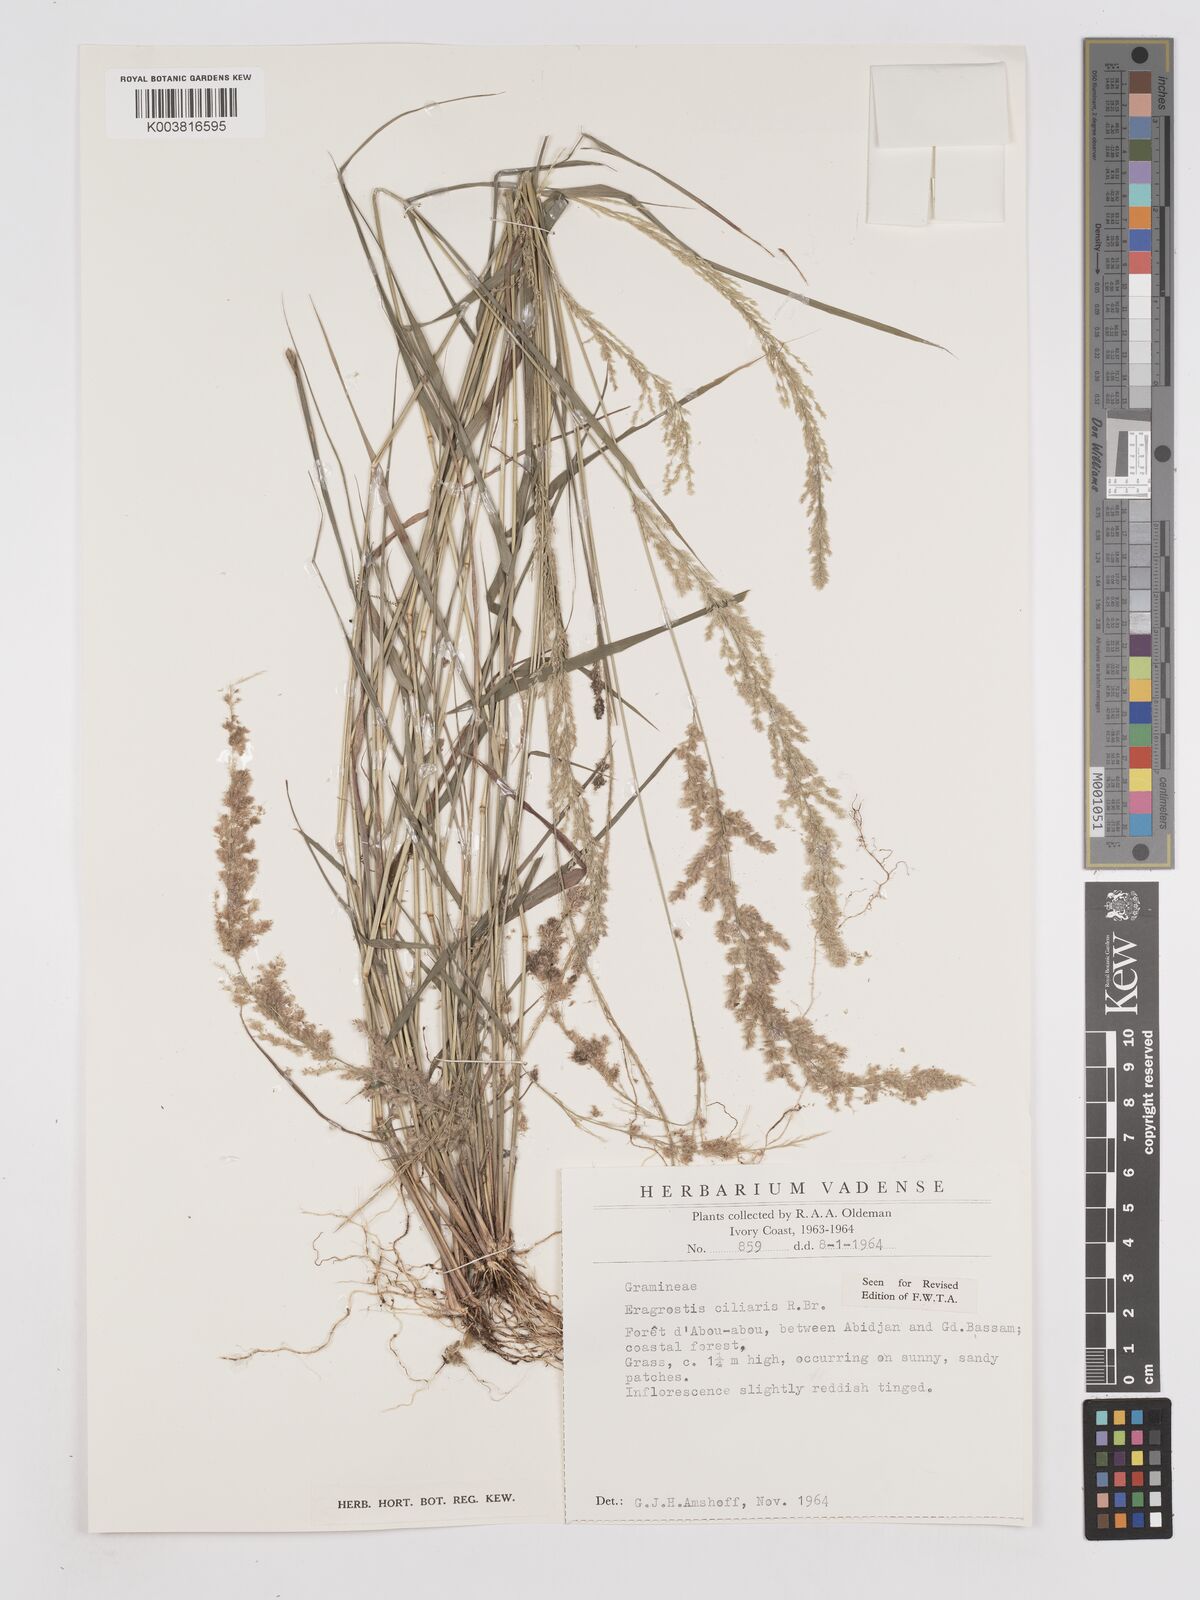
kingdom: Plantae
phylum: Tracheophyta
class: Liliopsida
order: Poales
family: Poaceae
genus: Eragrostis
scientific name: Eragrostis ciliaris
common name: Gophertail lovegrass
